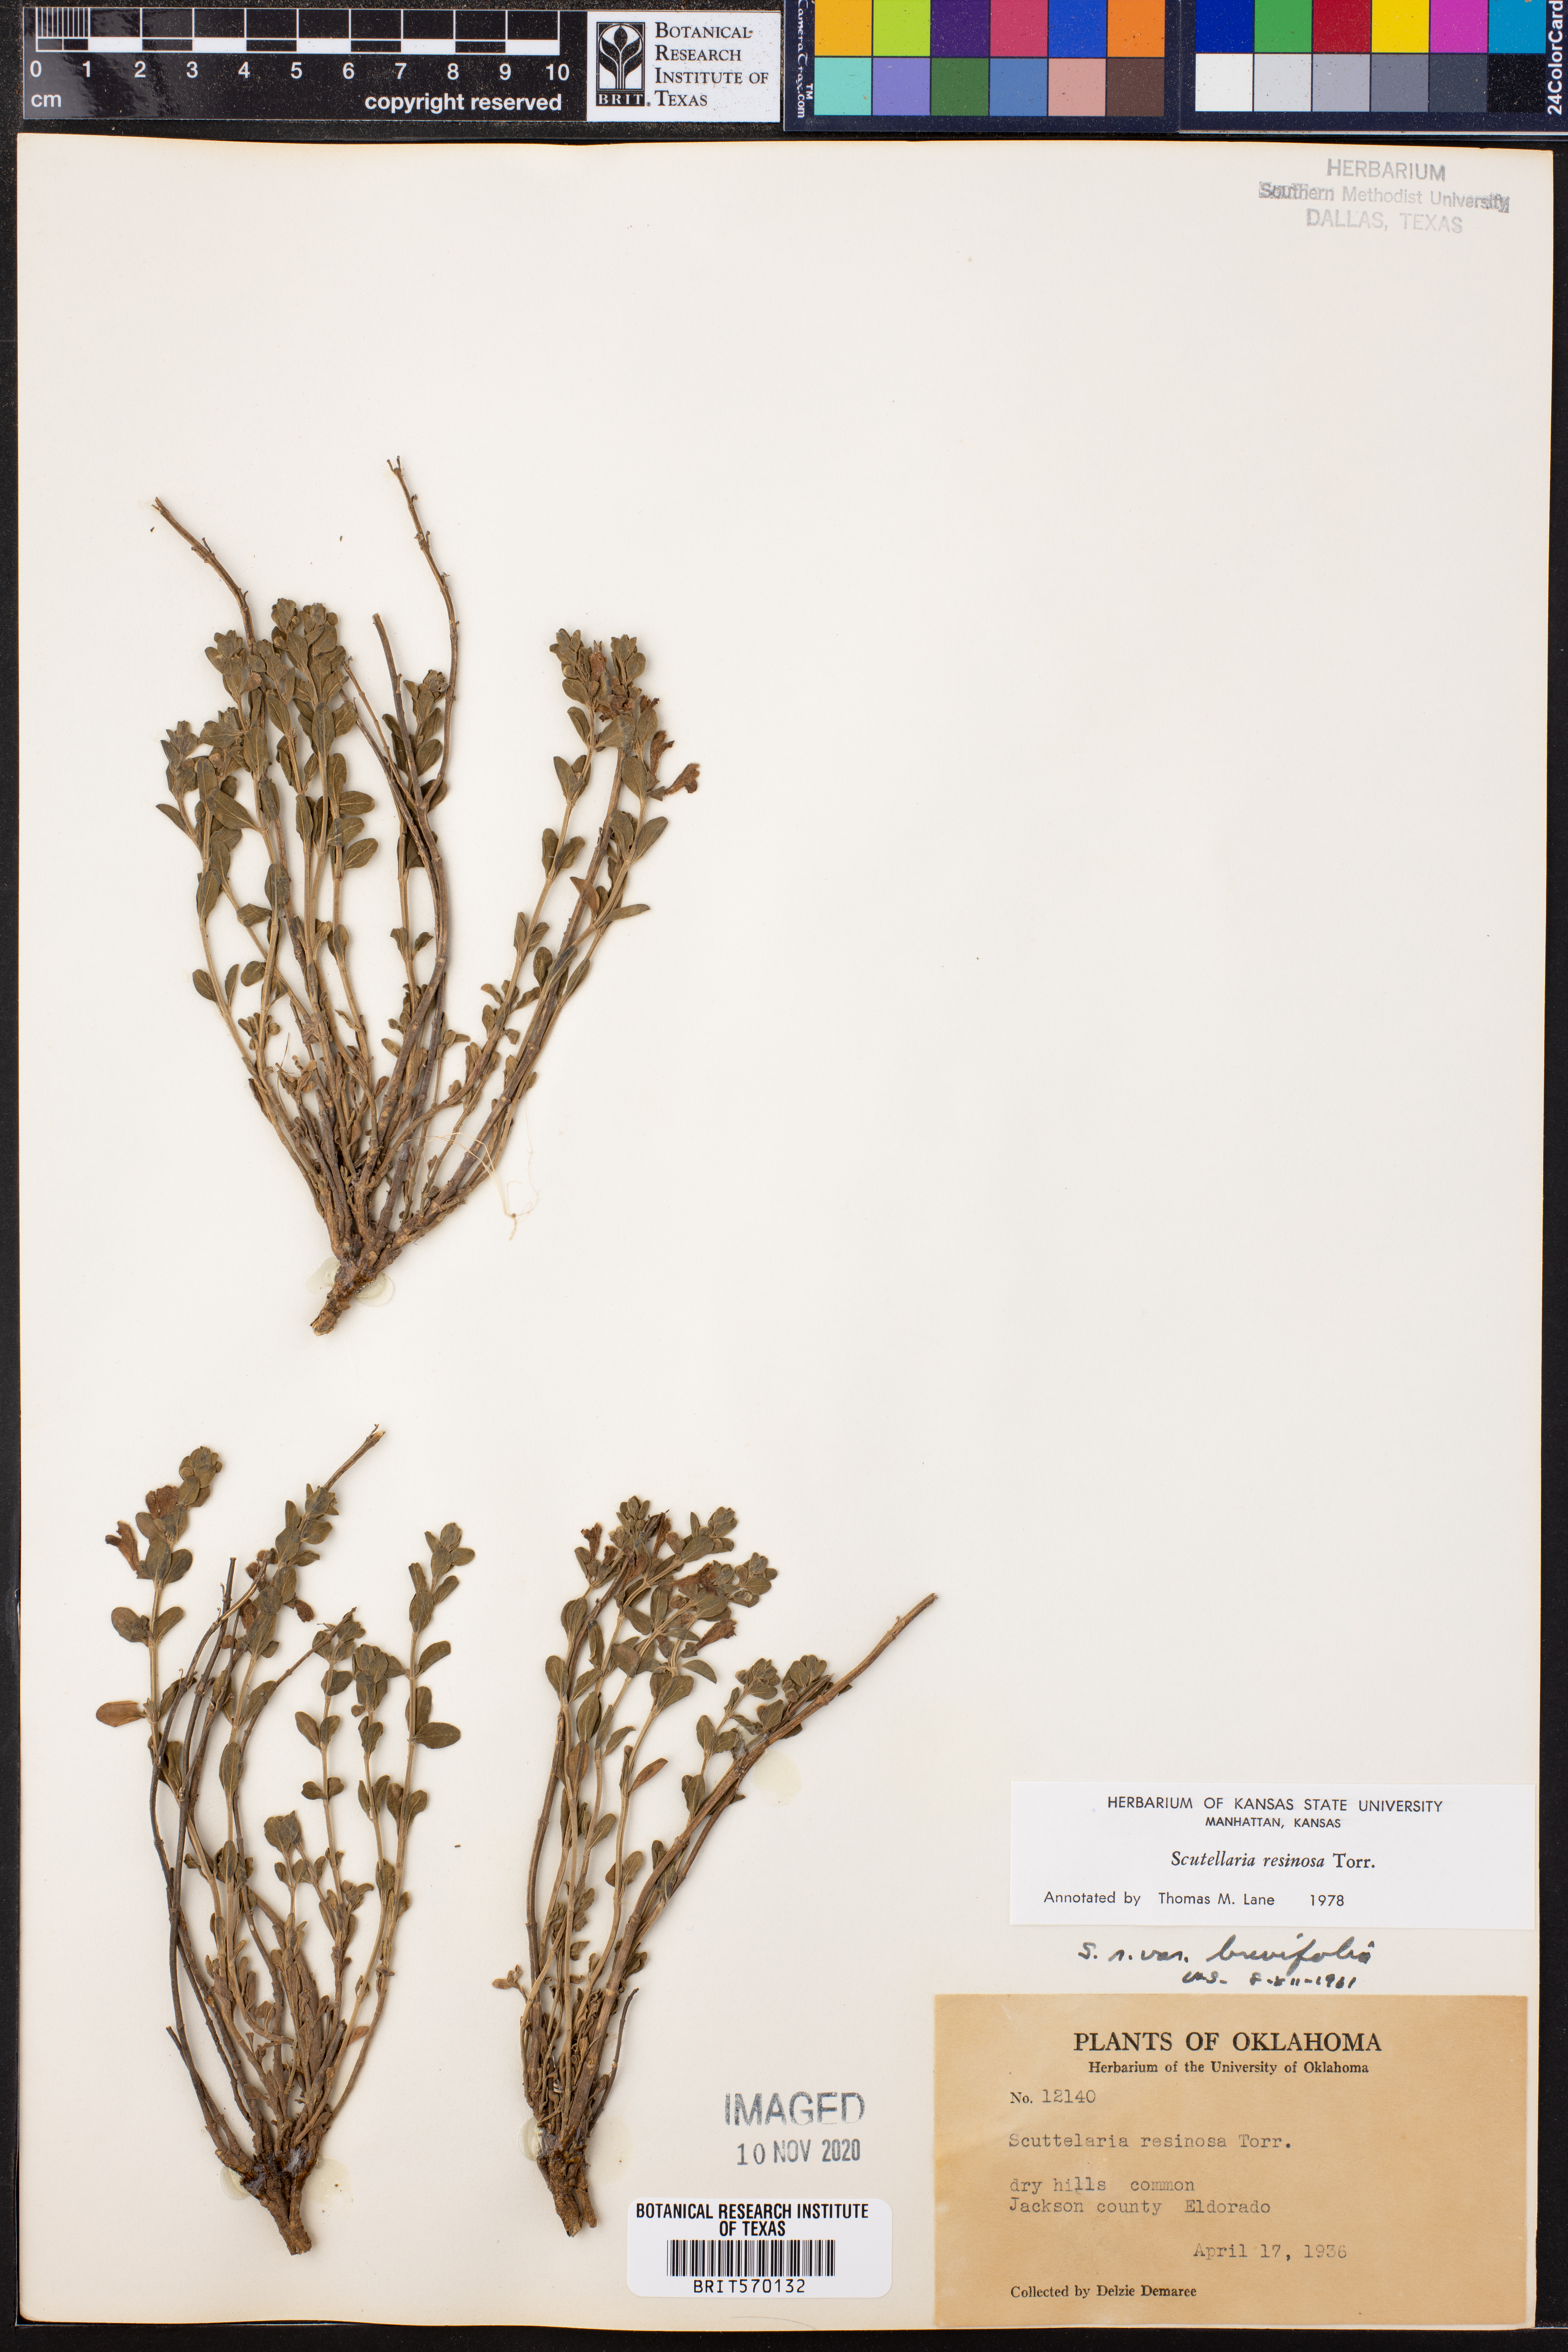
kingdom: Plantae
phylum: Tracheophyta
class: Magnoliopsida
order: Lamiales
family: Lamiaceae
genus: Scutellaria
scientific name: Scutellaria resinosa
